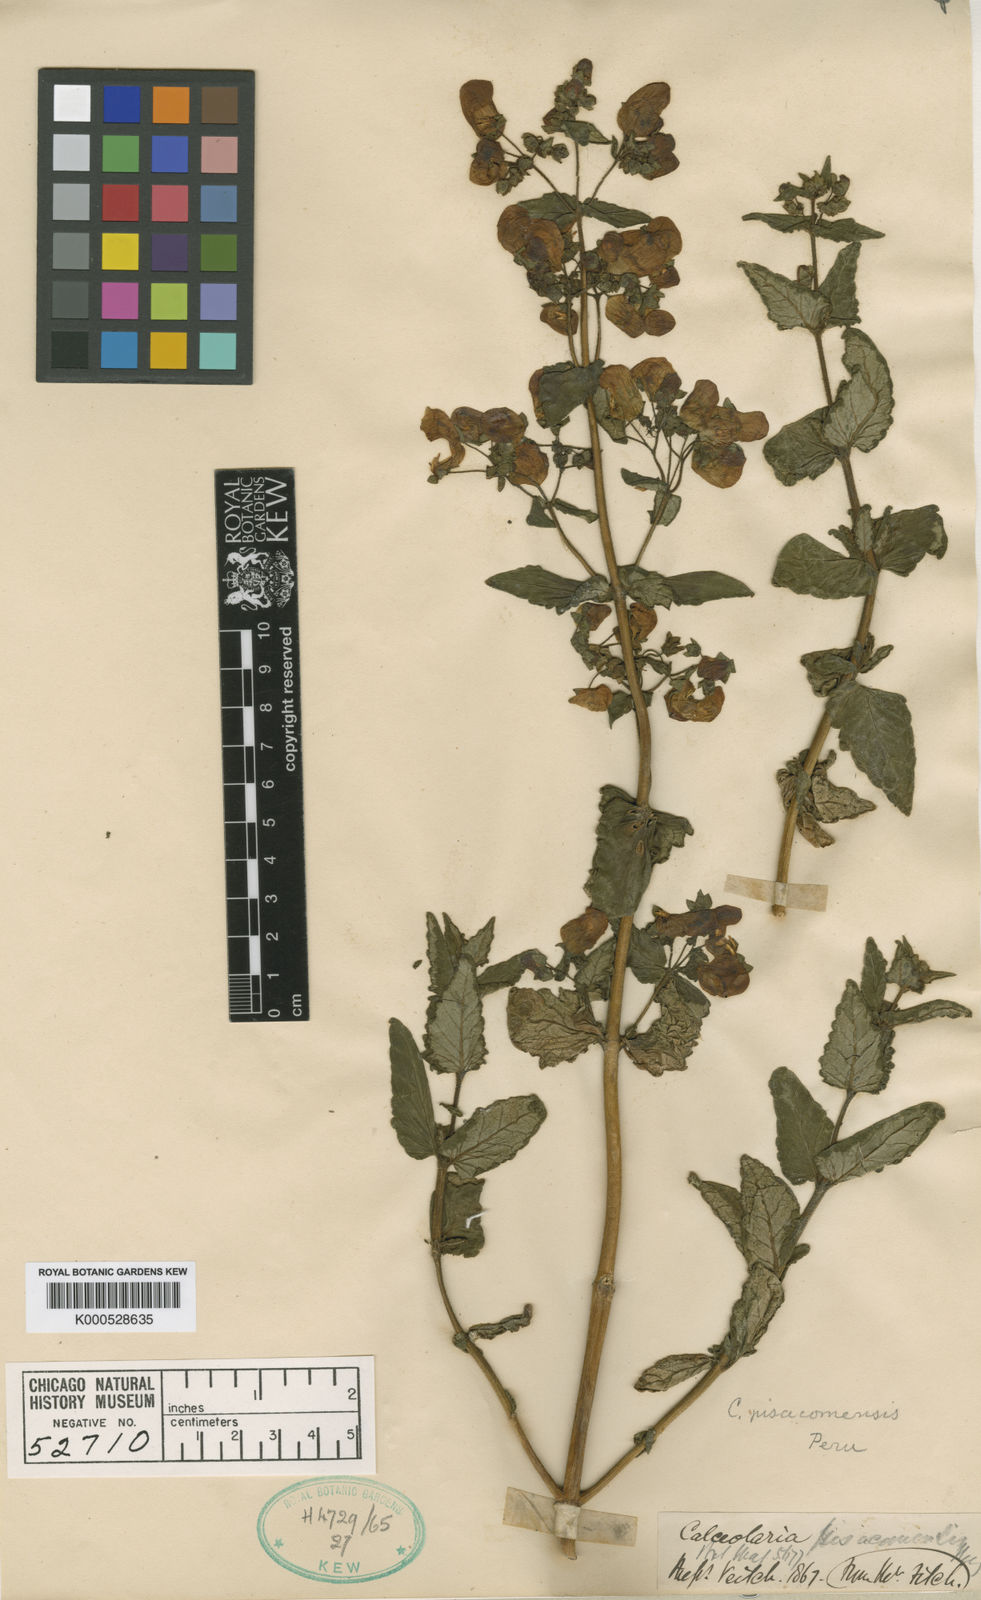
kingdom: Plantae
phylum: Tracheophyta
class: Magnoliopsida
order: Lamiales
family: Calceolariaceae
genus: Calceolaria
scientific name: Calceolaria
